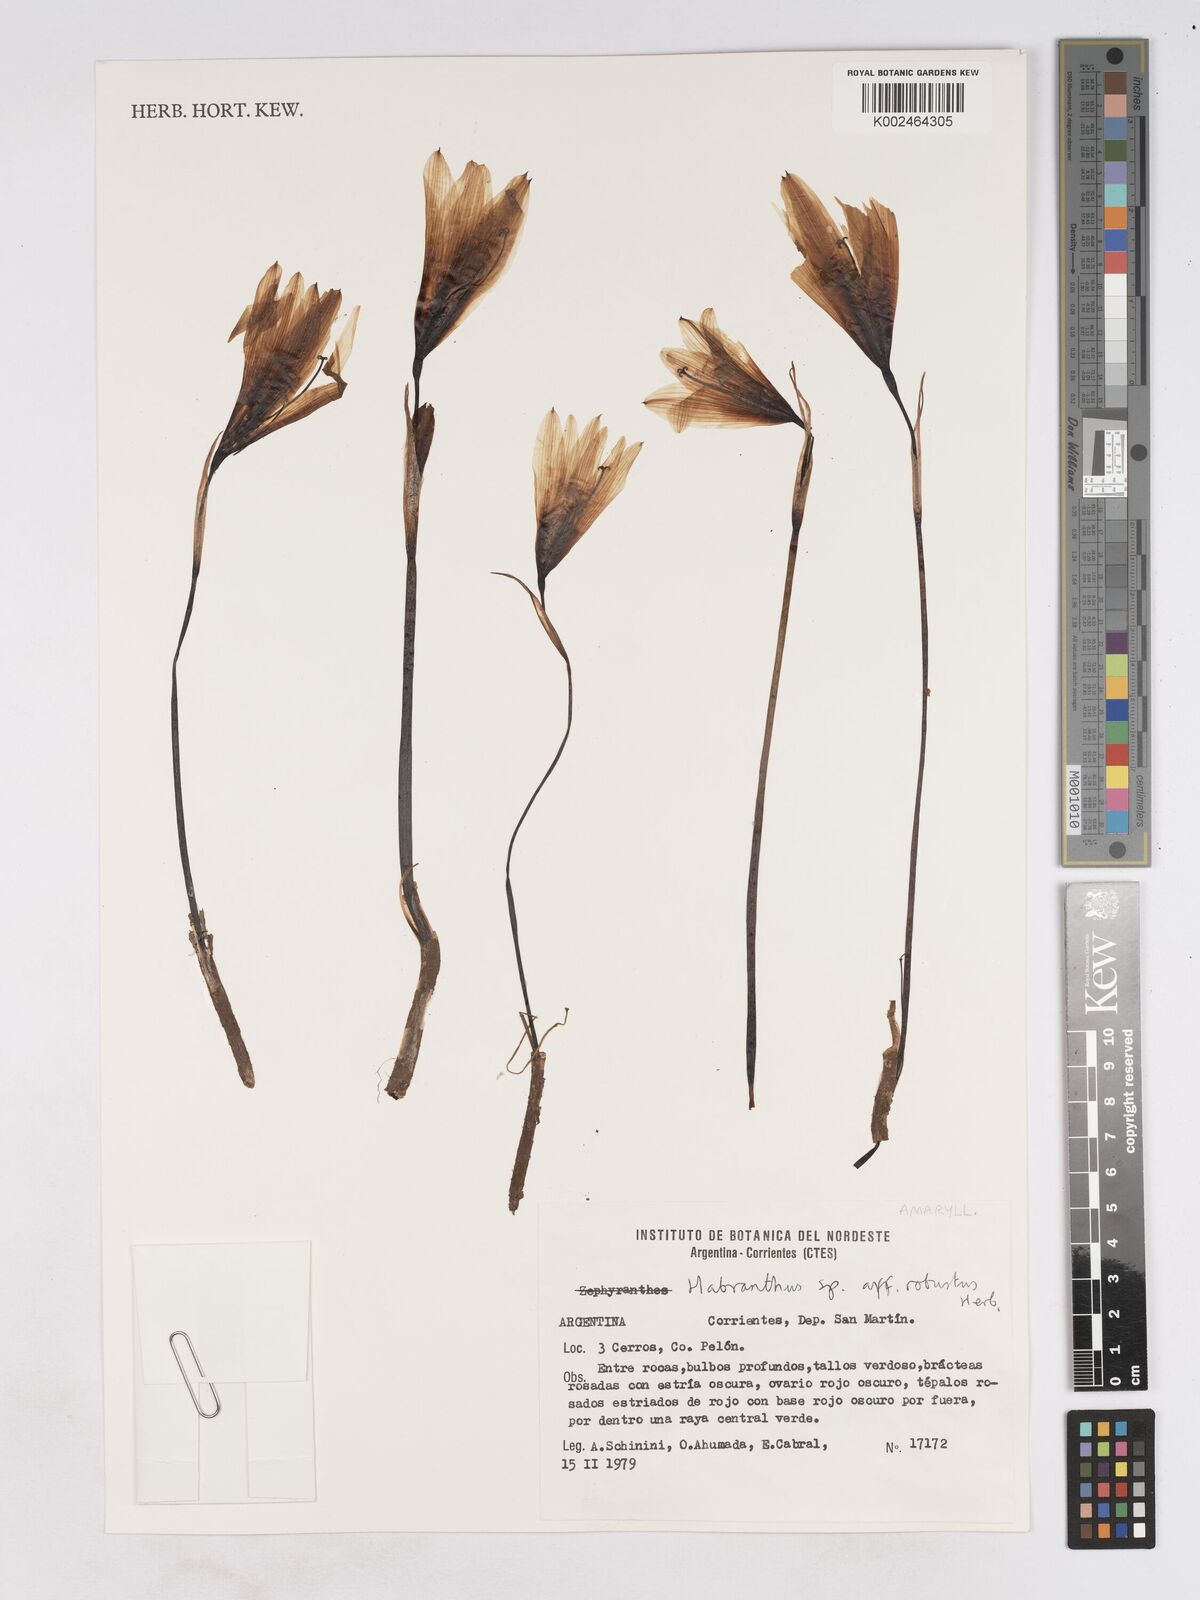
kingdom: Plantae
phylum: Tracheophyta
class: Liliopsida
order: Asparagales
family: Amaryllidaceae
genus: Zephyranthes
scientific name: Zephyranthes robusta
